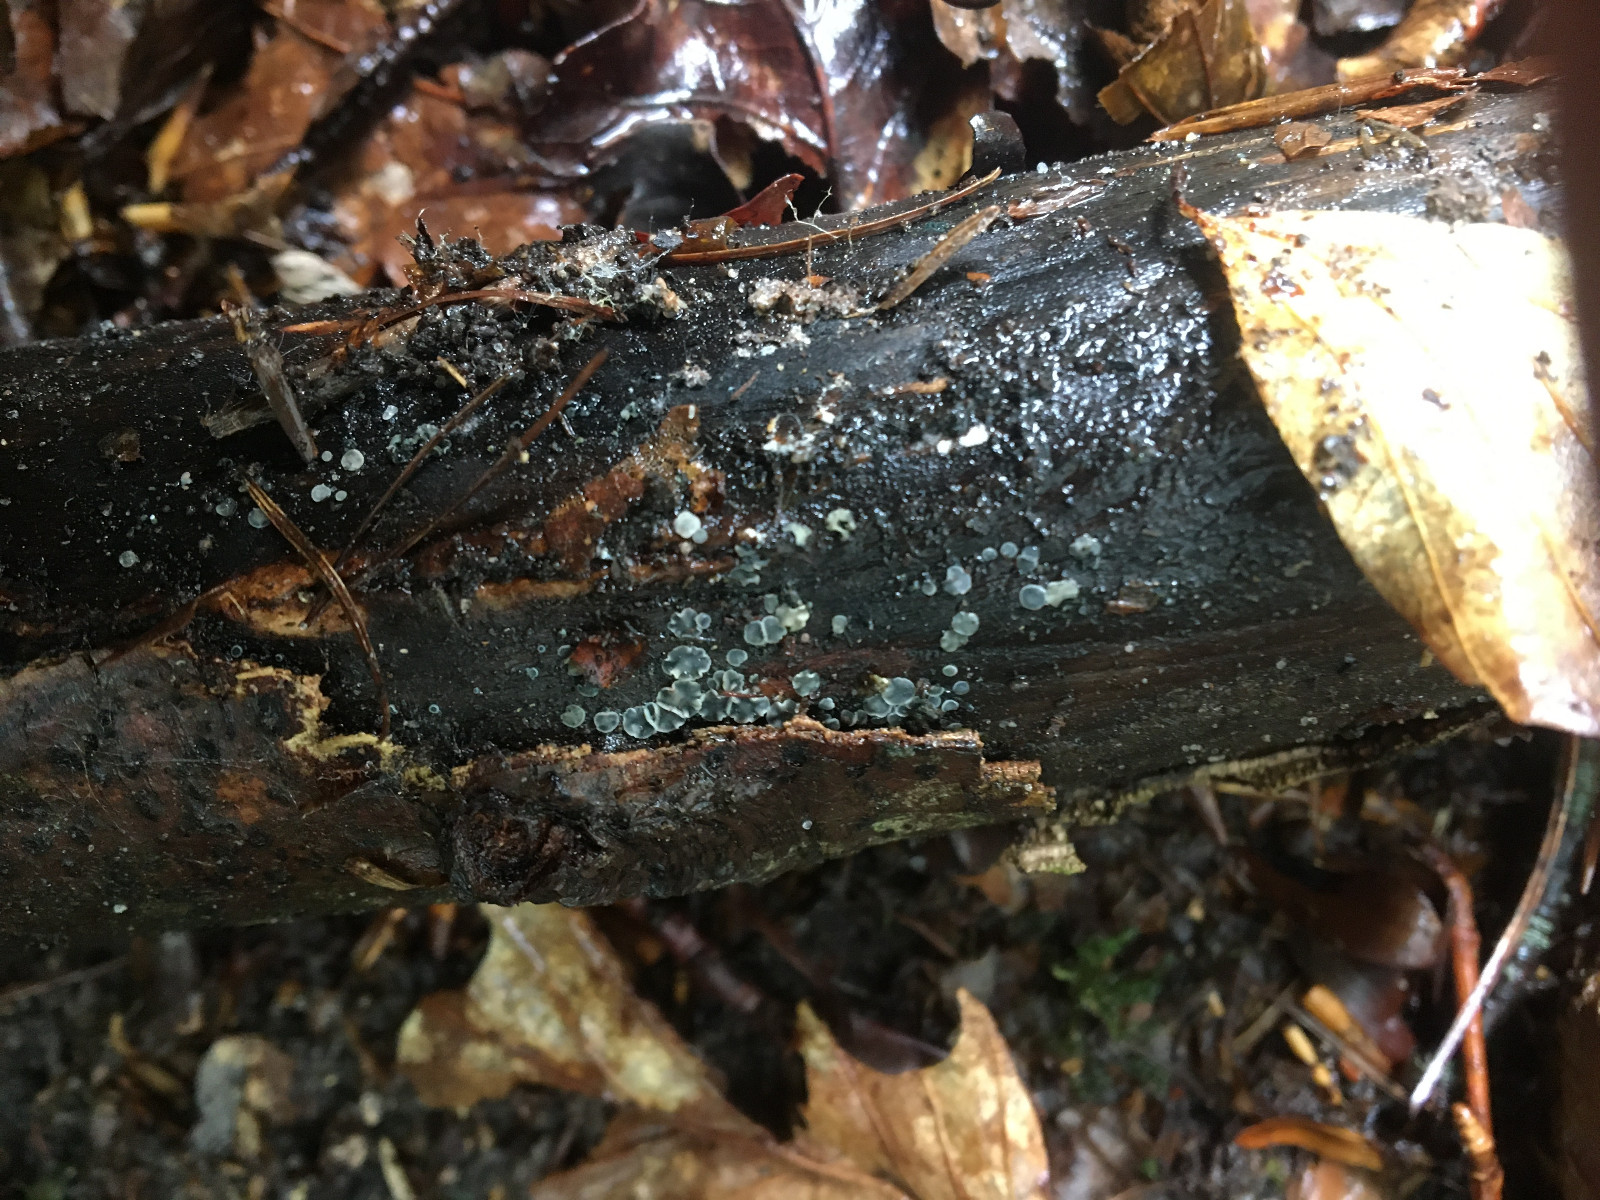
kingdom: Fungi
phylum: Ascomycota
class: Leotiomycetes
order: Helotiales
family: Mollisiaceae
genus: Mollisia
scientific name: Mollisia cinerea
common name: almindelig gråskive
